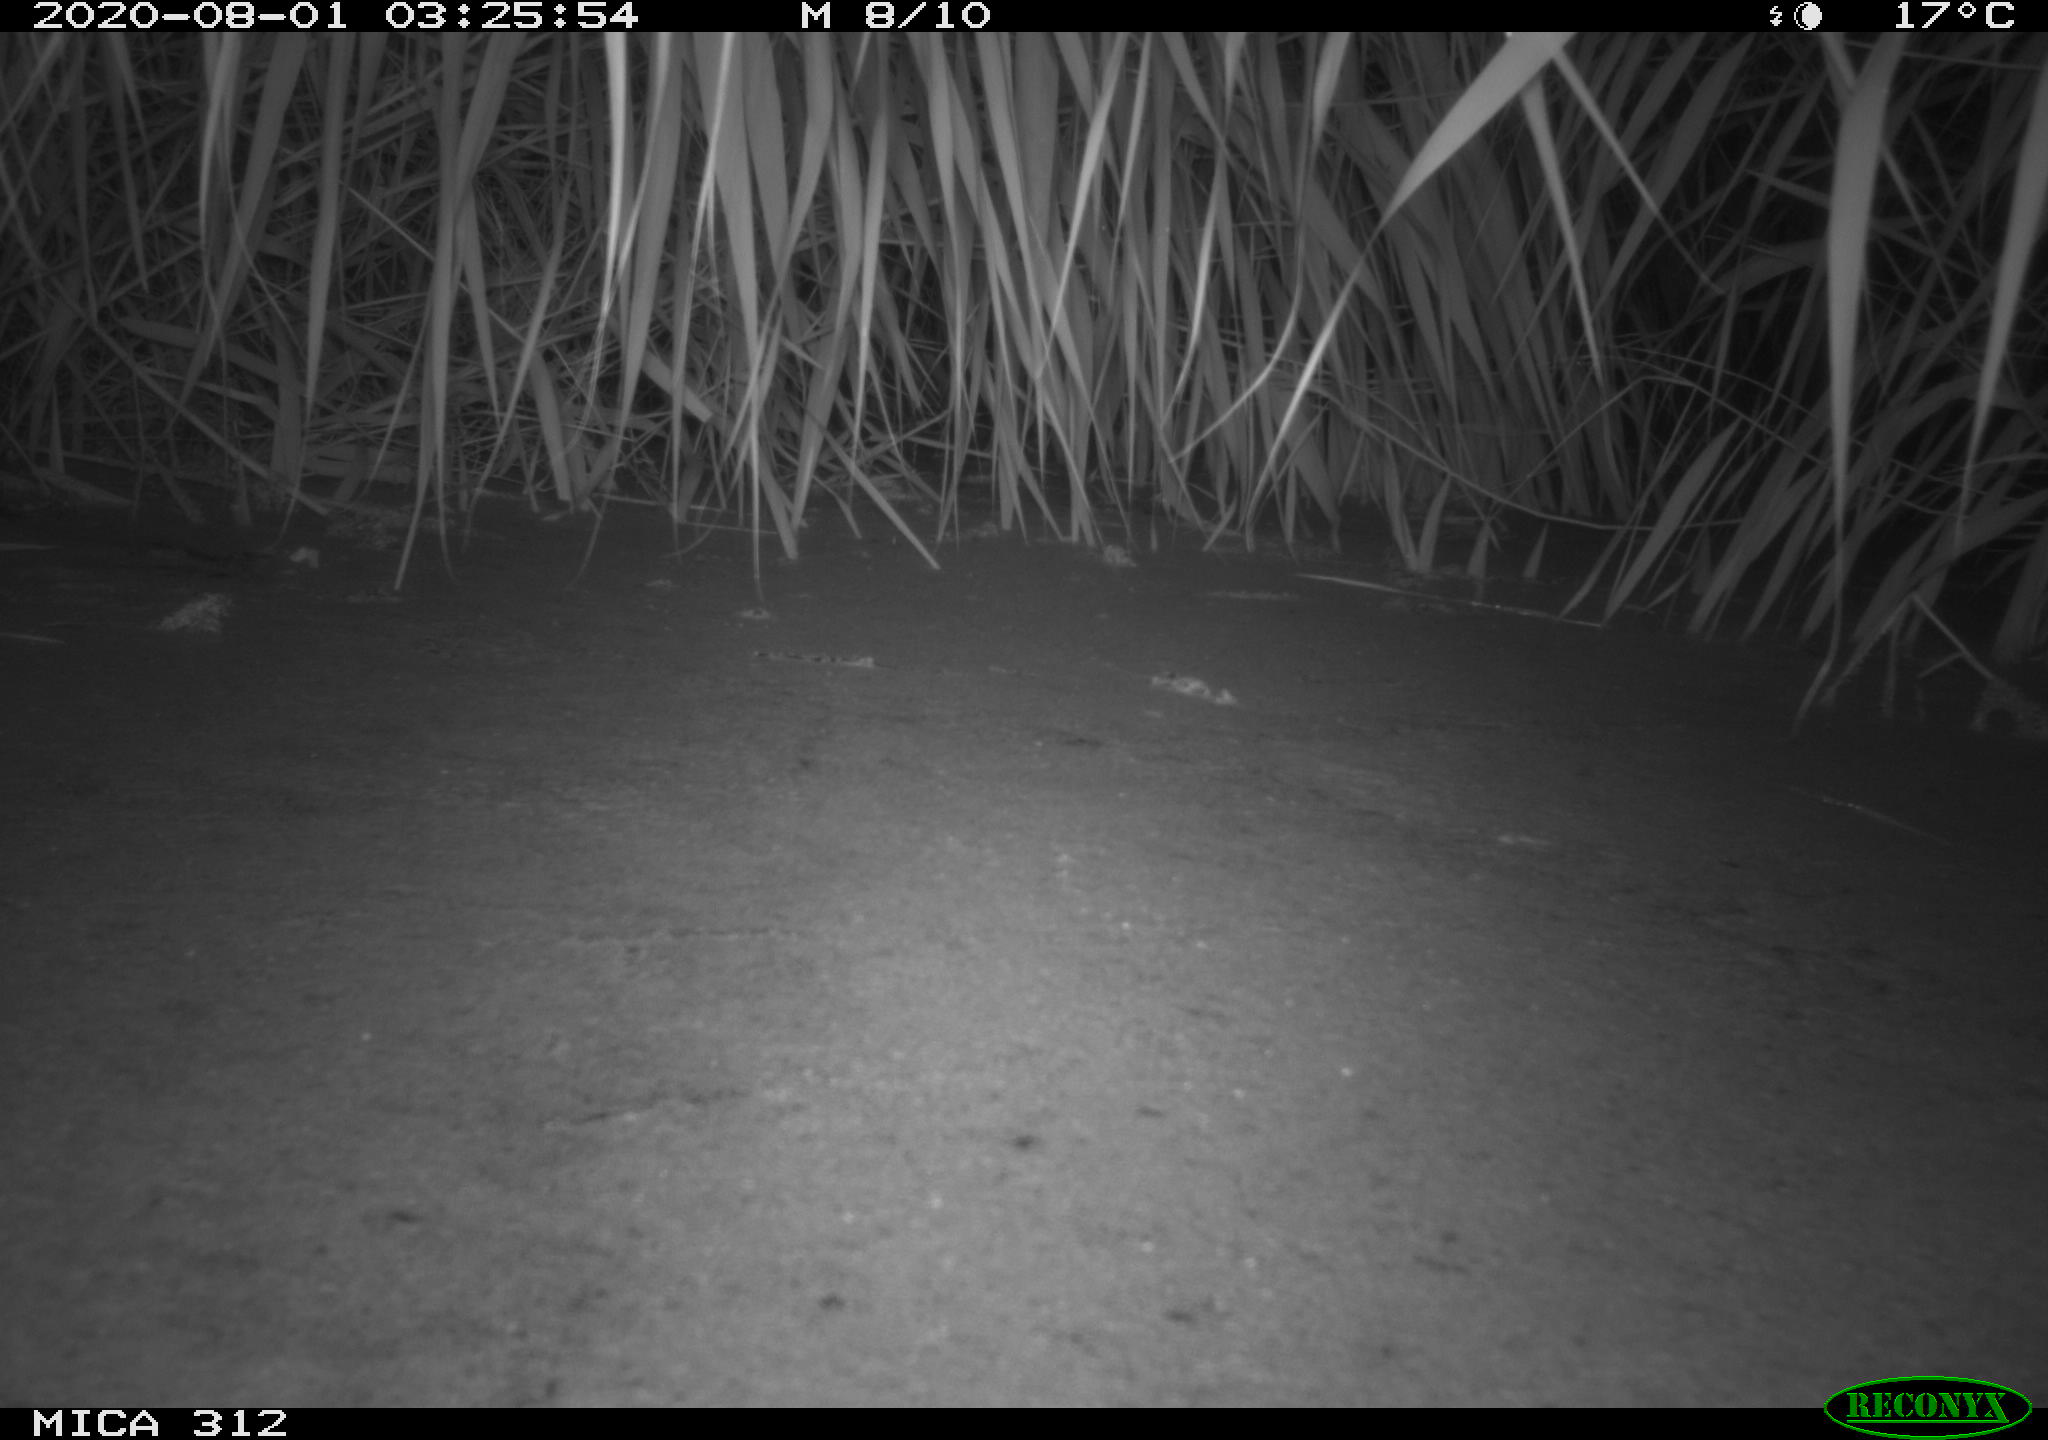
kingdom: Animalia
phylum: Chordata
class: Mammalia
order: Rodentia
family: Muridae
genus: Rattus
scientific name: Rattus norvegicus
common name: Brown rat
